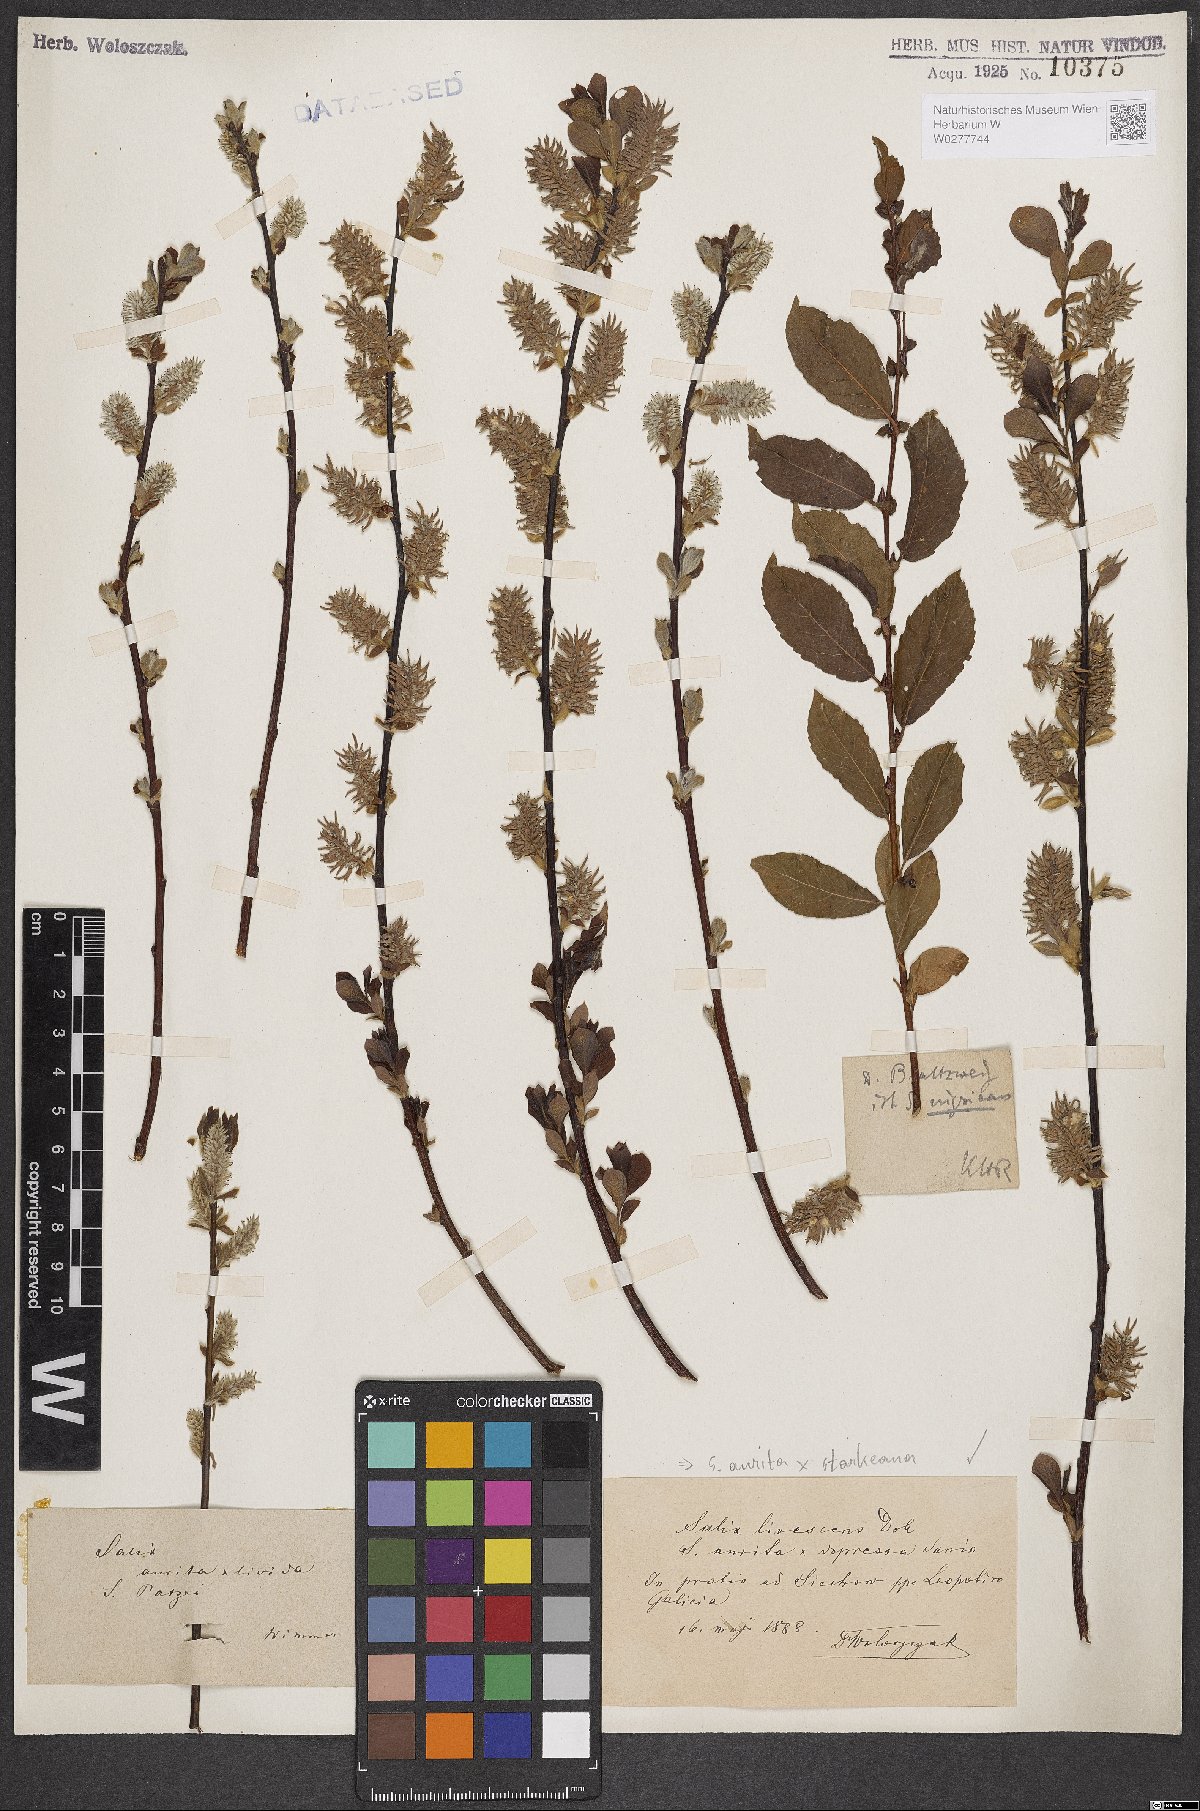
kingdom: Plantae
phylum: Tracheophyta
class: Magnoliopsida
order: Malpighiales
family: Salicaceae
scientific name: Salicaceae
